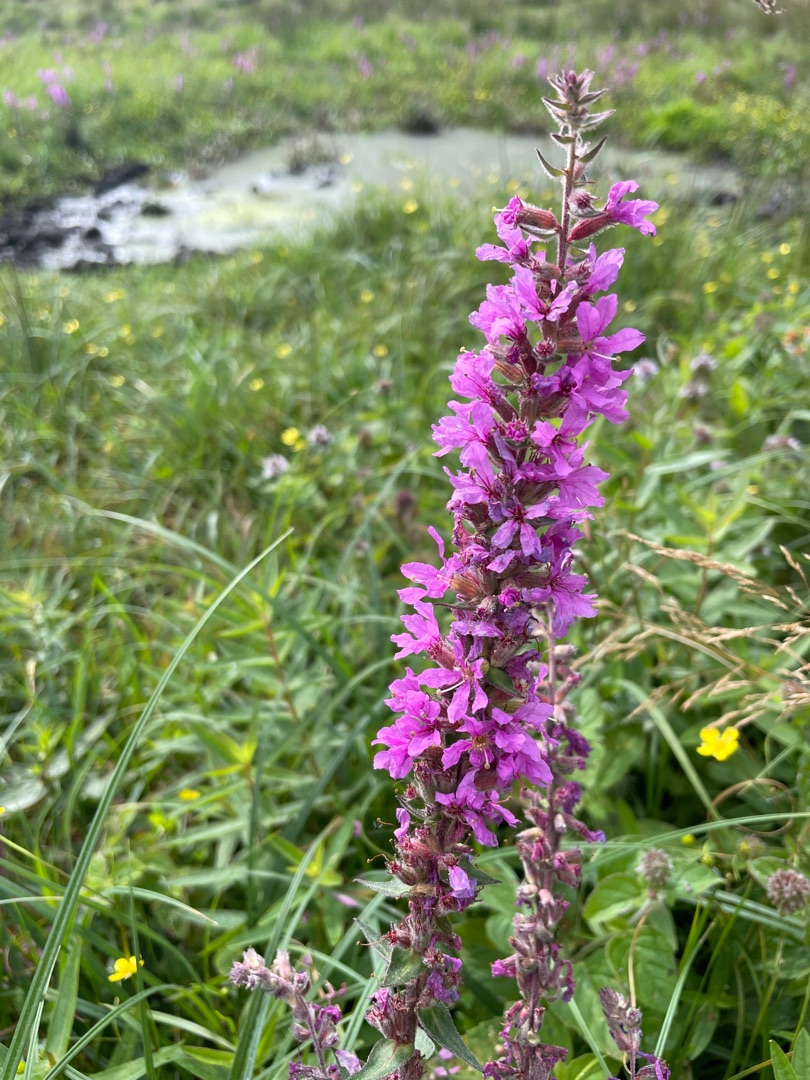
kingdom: Plantae
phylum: Tracheophyta
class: Magnoliopsida
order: Myrtales
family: Lythraceae
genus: Lythrum
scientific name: Lythrum salicaria
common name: Kattehale
